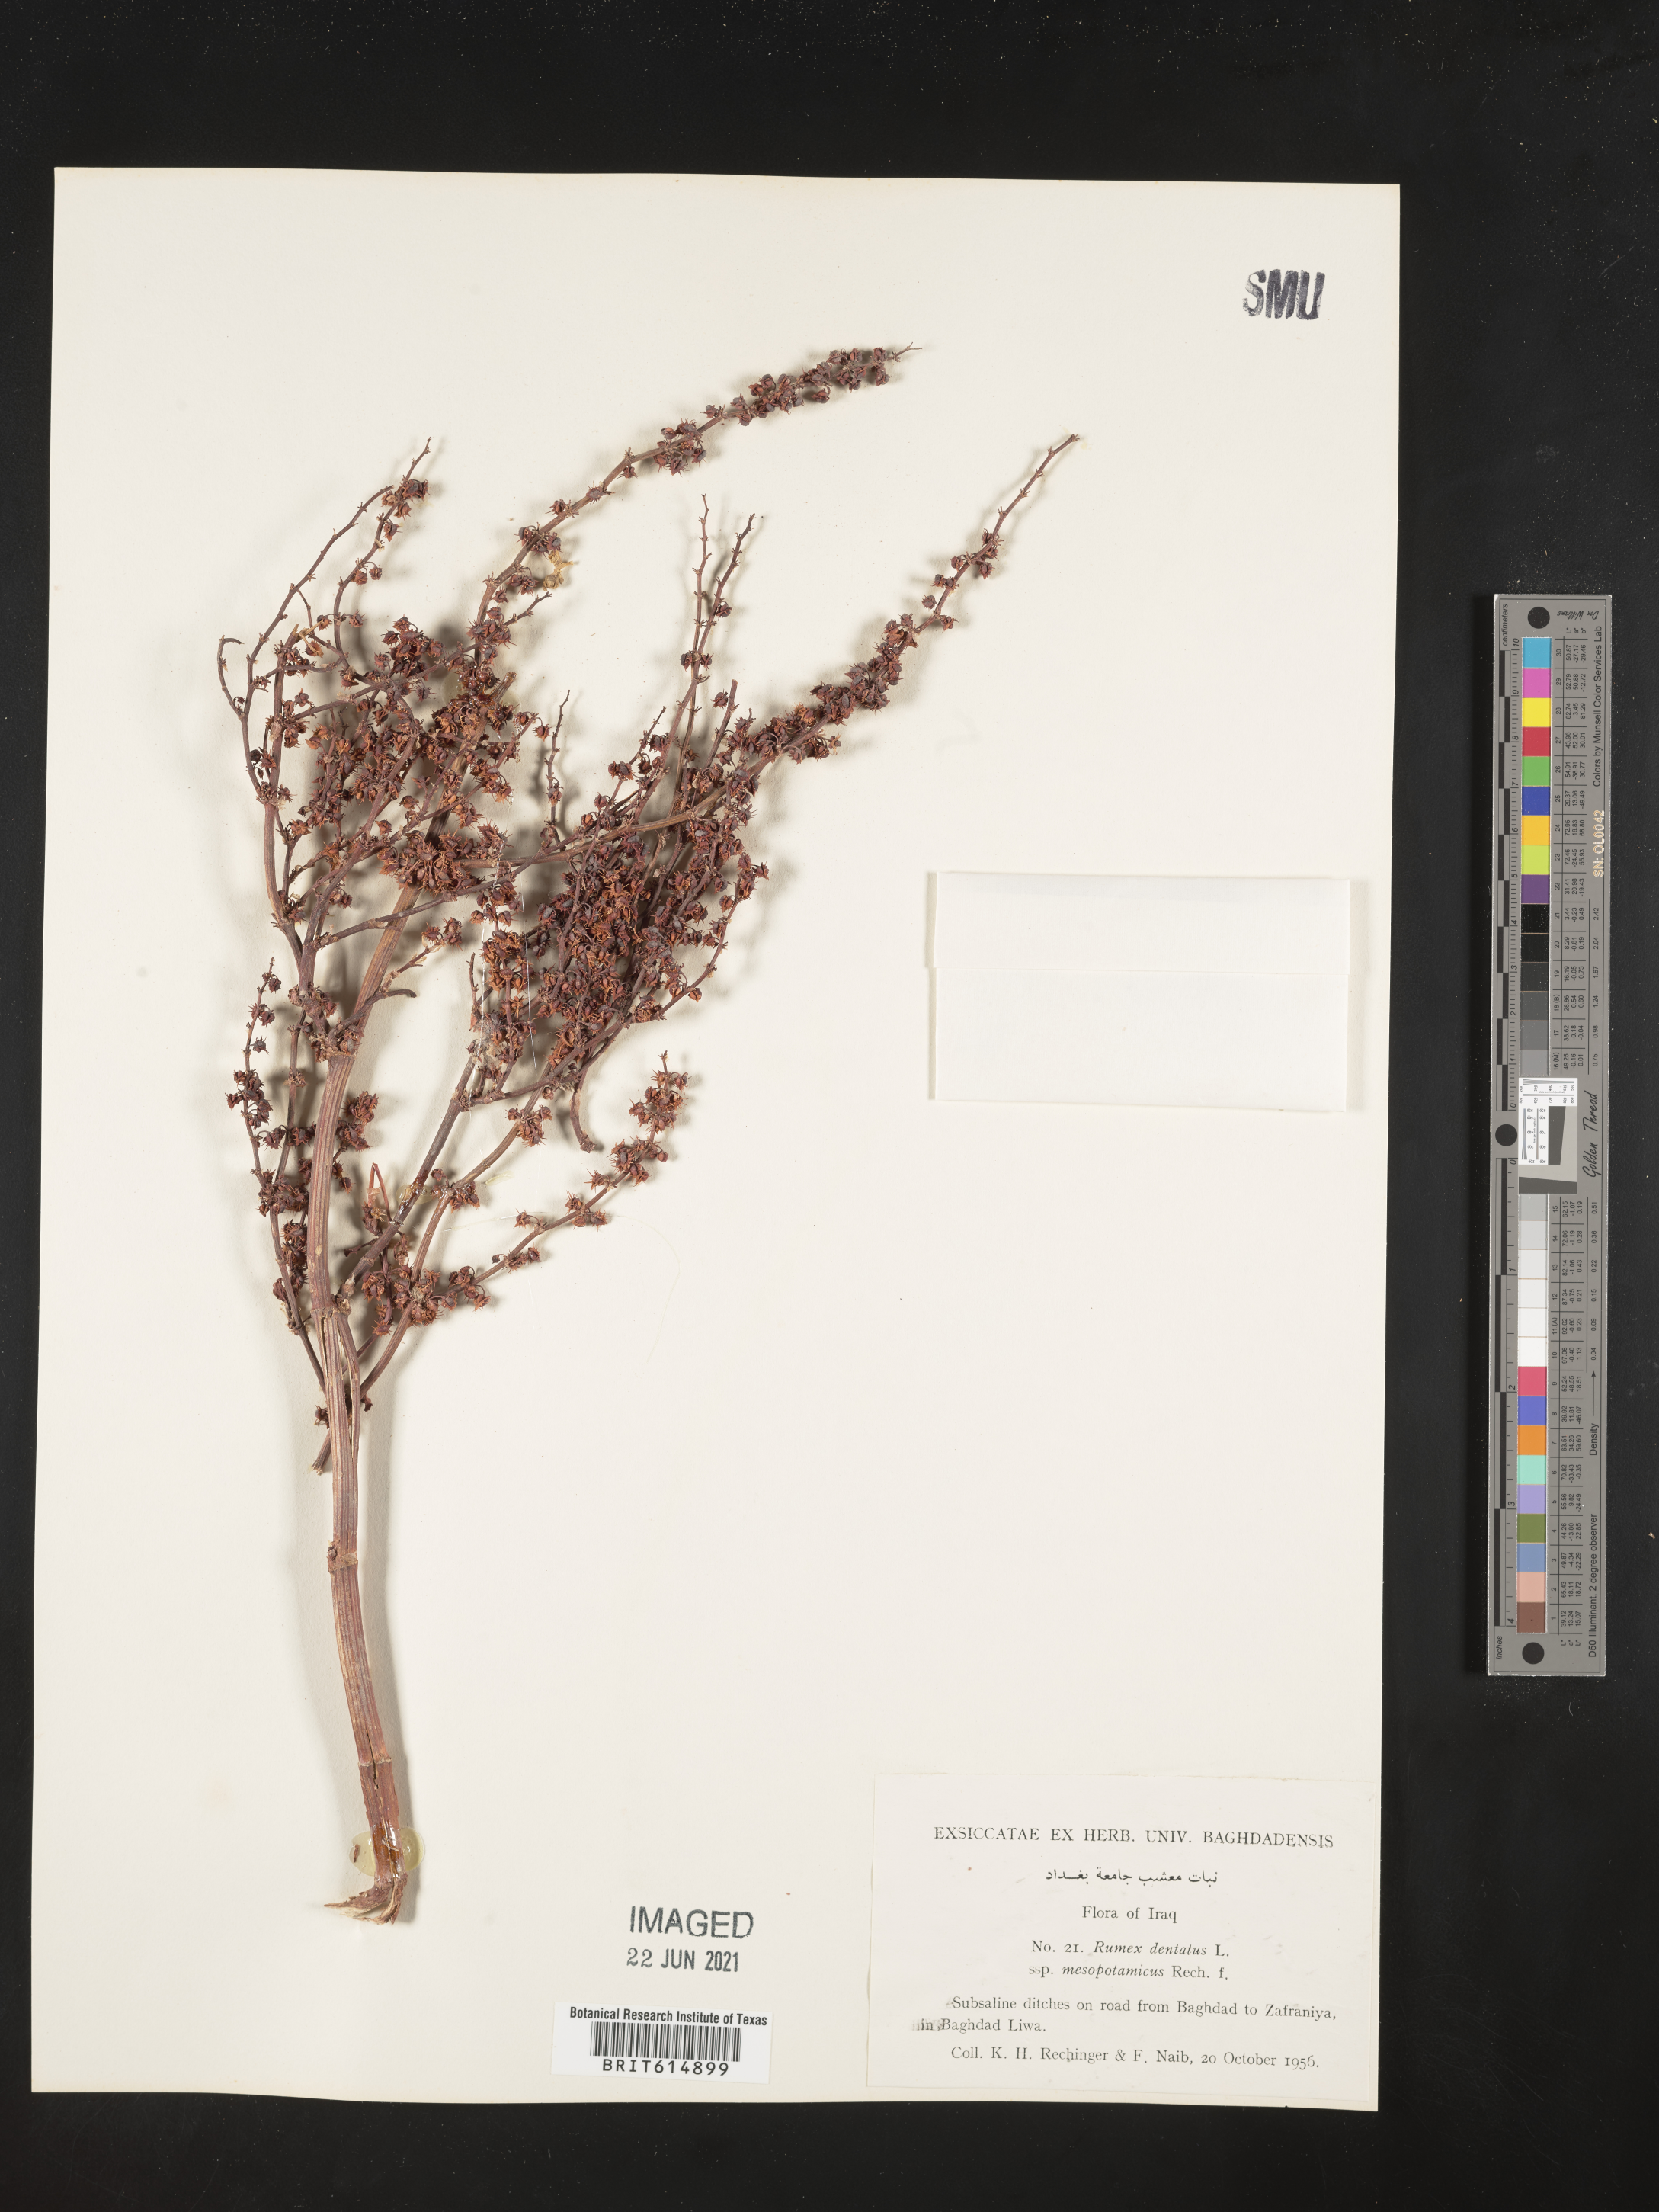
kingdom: Plantae
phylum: Tracheophyta
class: Magnoliopsida
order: Caryophyllales
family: Polygonaceae
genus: Rumex
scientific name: Rumex dentatus
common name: Toothed dock
